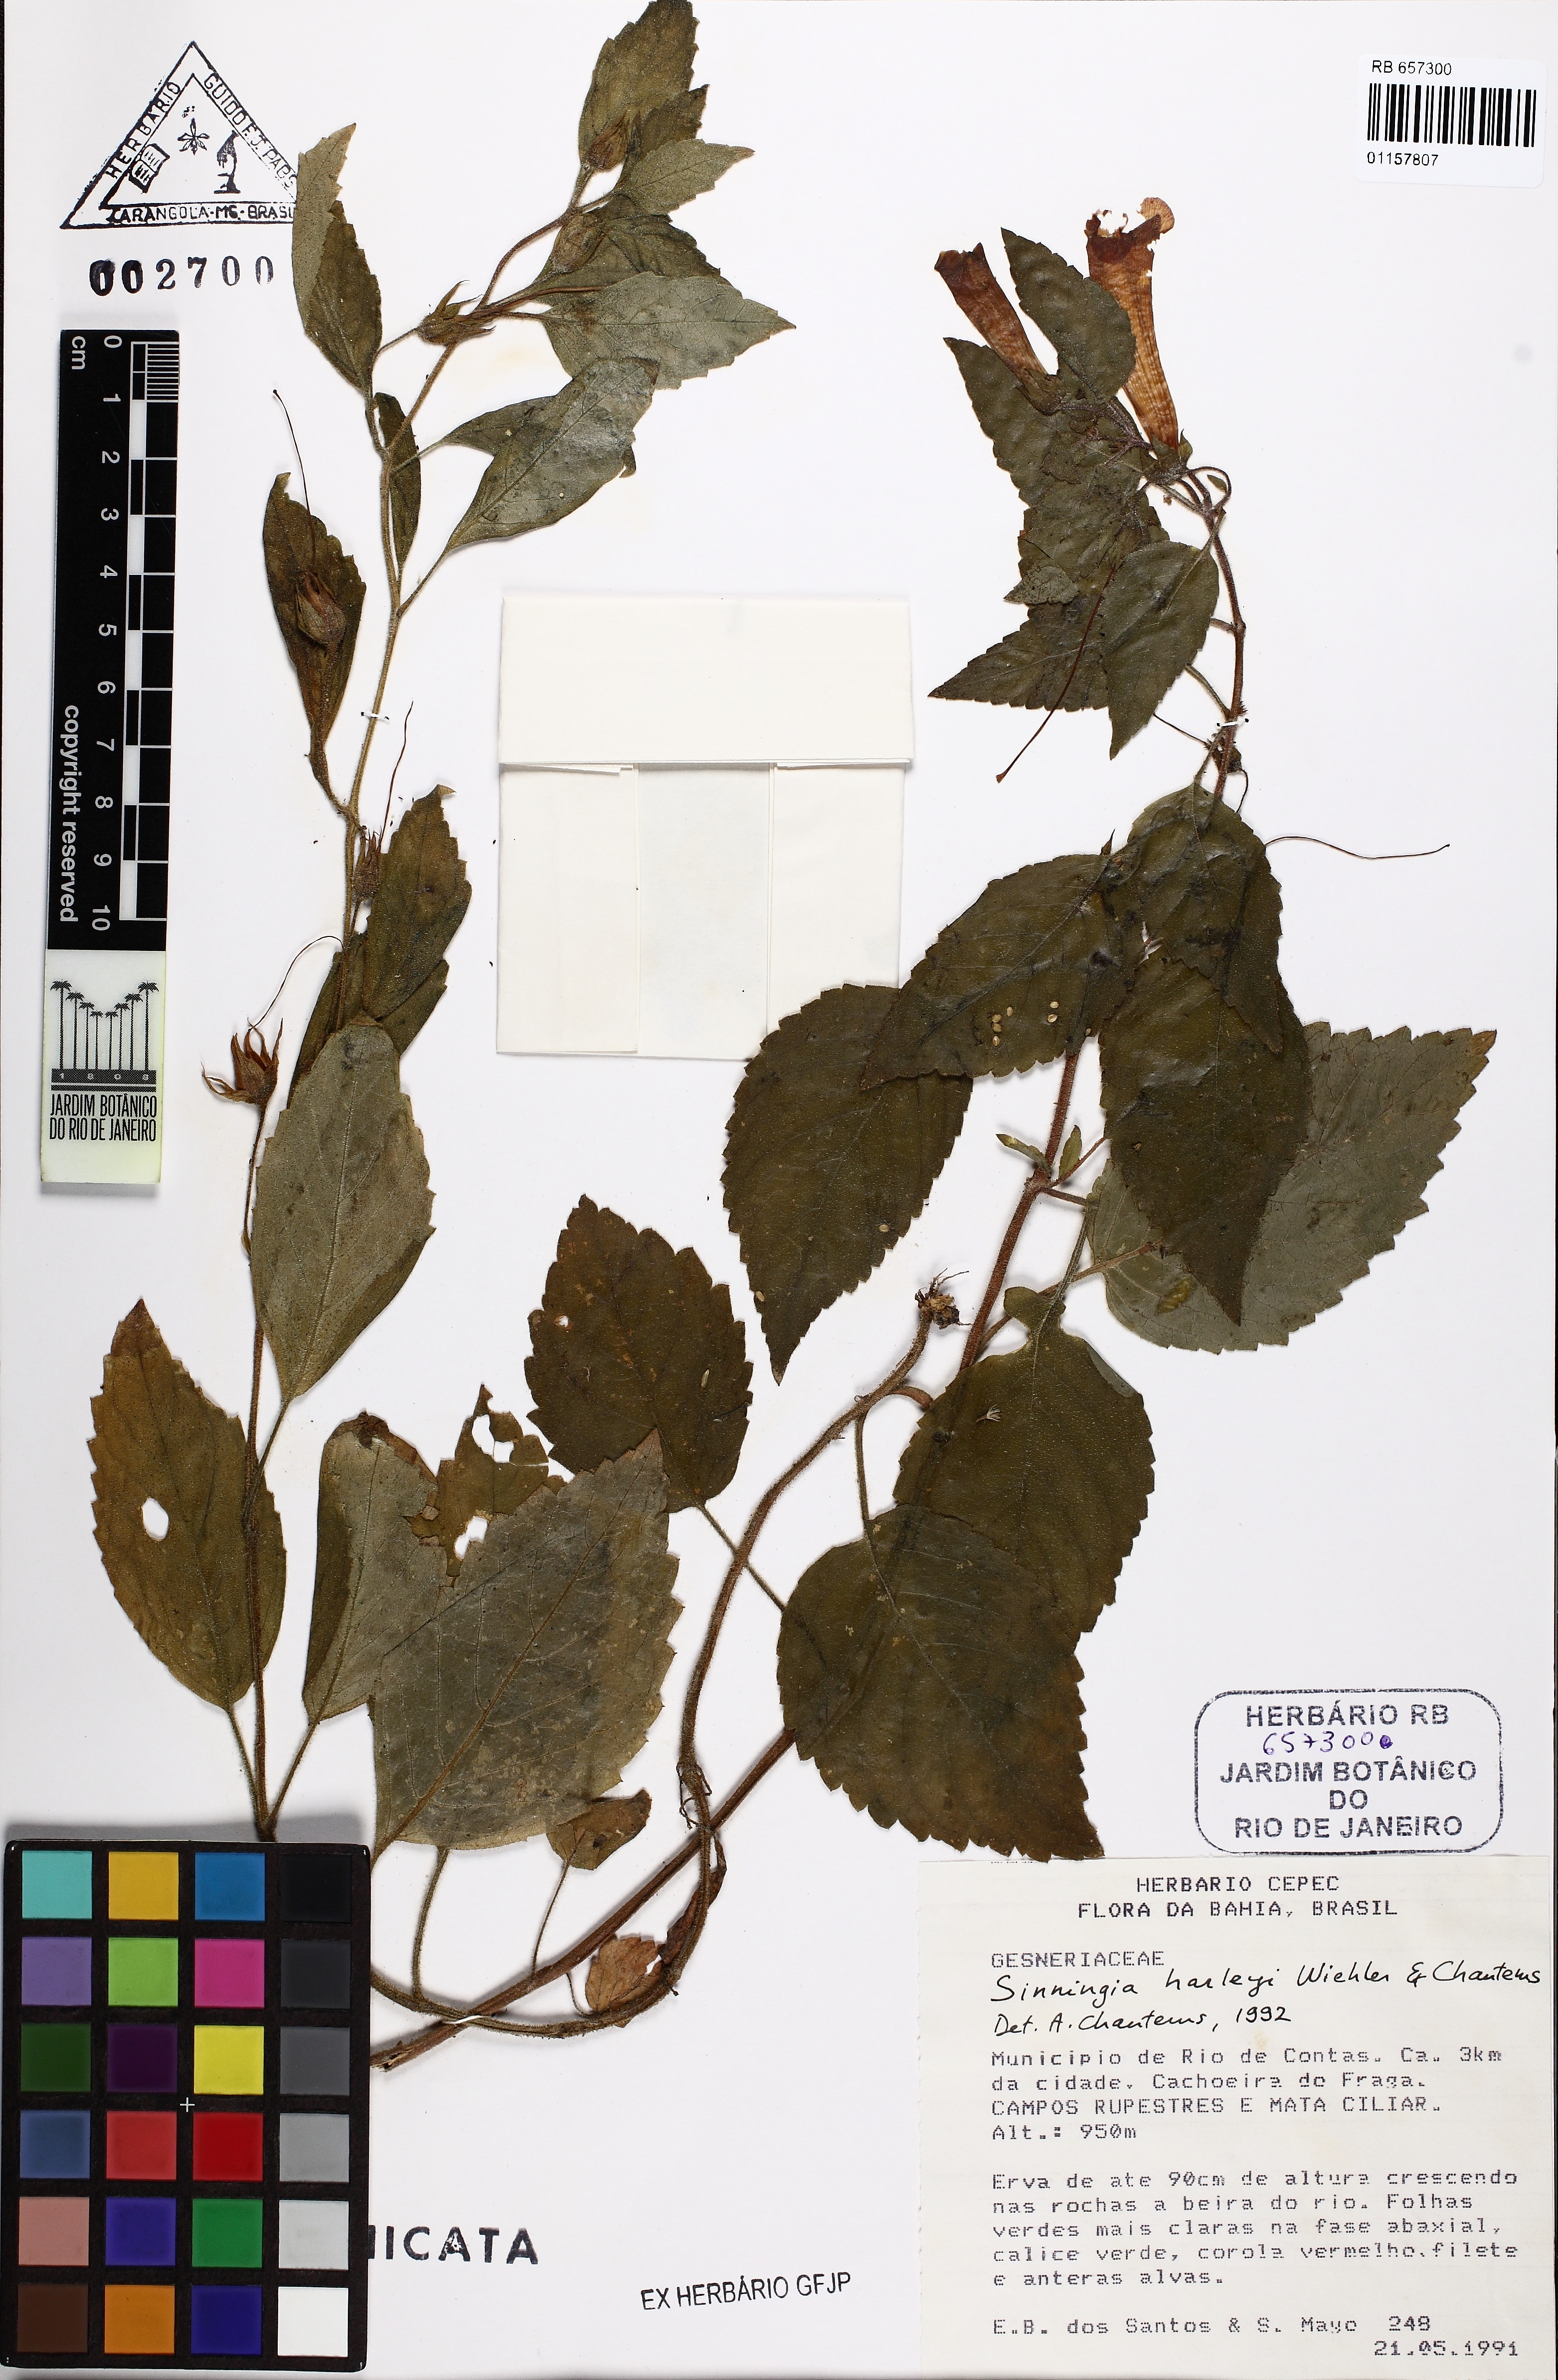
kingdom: Plantae
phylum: Tracheophyta
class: Magnoliopsida
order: Lamiales
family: Gesneriaceae
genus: Sinningia
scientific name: Sinningia harleyi
